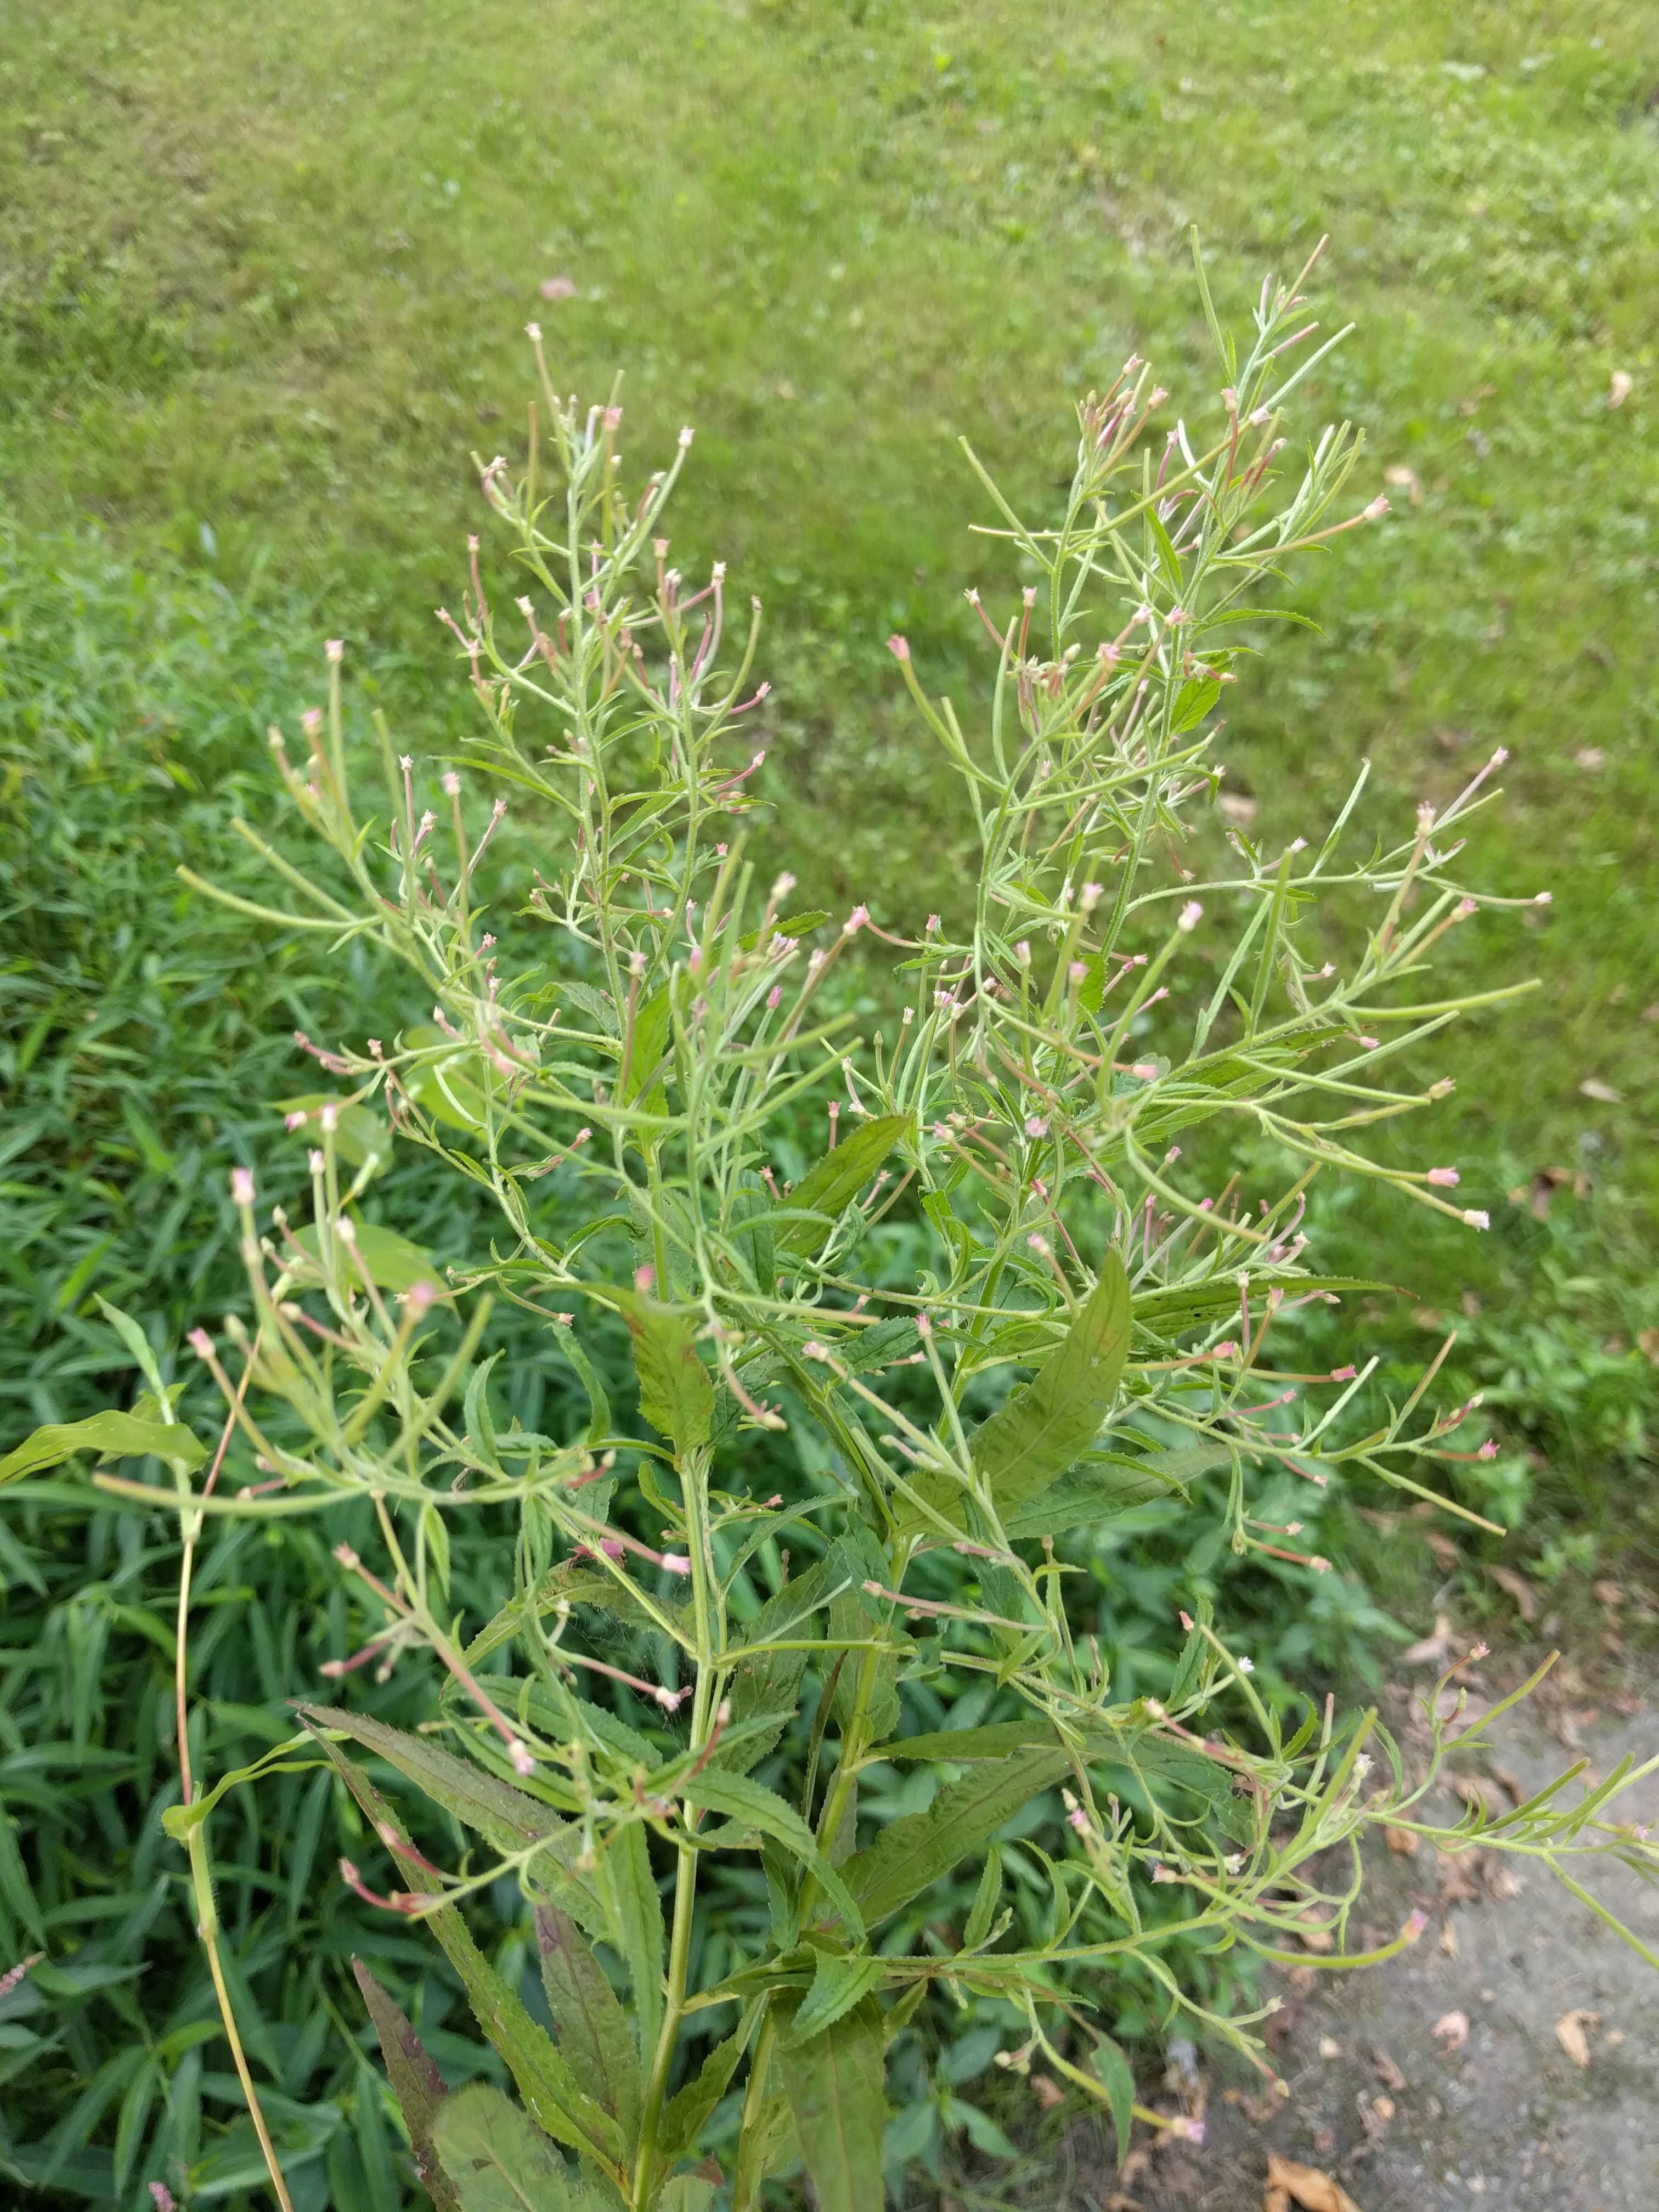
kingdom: Plantae
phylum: Tracheophyta
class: Magnoliopsida
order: Myrtales
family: Onagraceae
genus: Epilobium
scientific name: Epilobium coloratum
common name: Bronze willowherb
